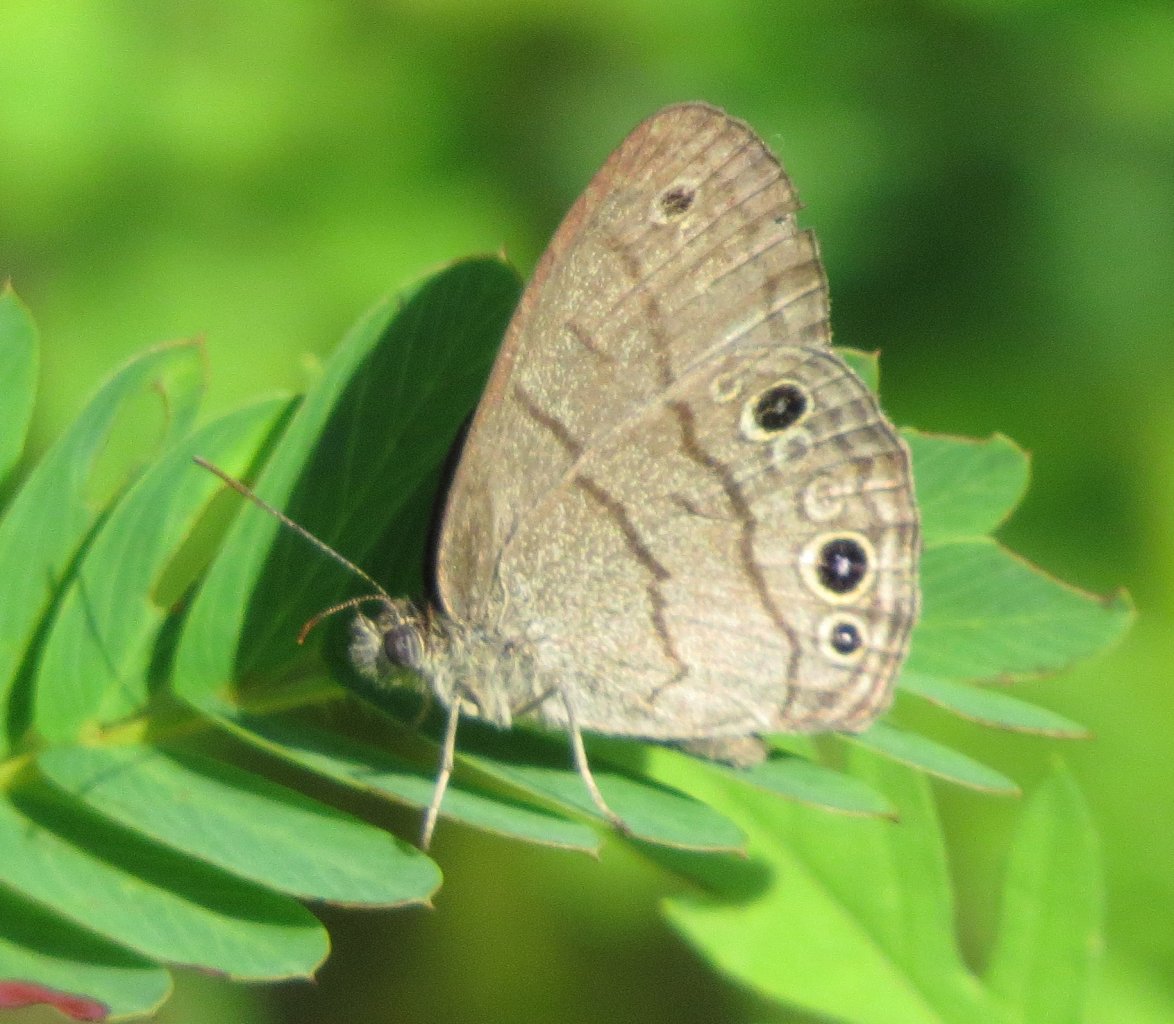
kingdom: Animalia
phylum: Arthropoda
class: Insecta
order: Lepidoptera
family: Nymphalidae
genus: Hermeuptychia
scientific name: Hermeuptychia hermes
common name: Carolina Satyr
